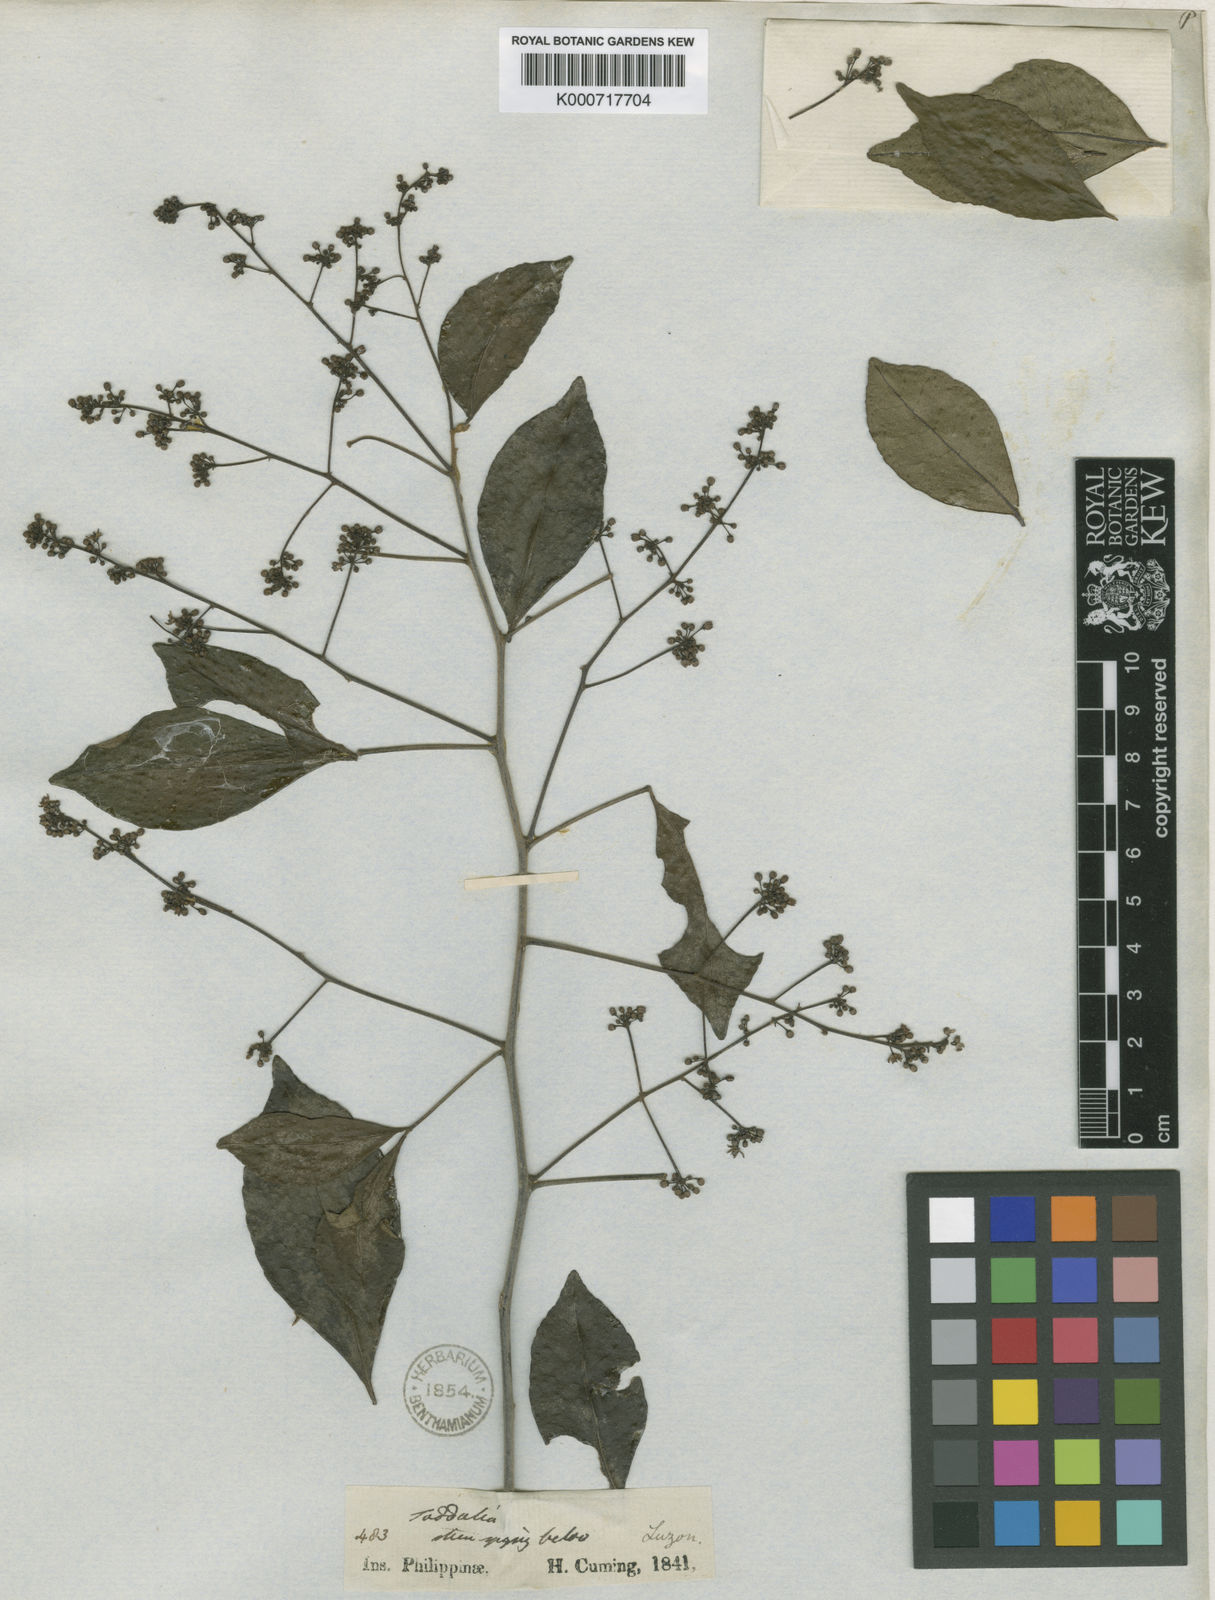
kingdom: Plantae
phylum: Tracheophyta
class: Magnoliopsida
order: Sapindales
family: Rutaceae
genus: Zanthoxylum
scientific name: Zanthoxylum asiaticum
